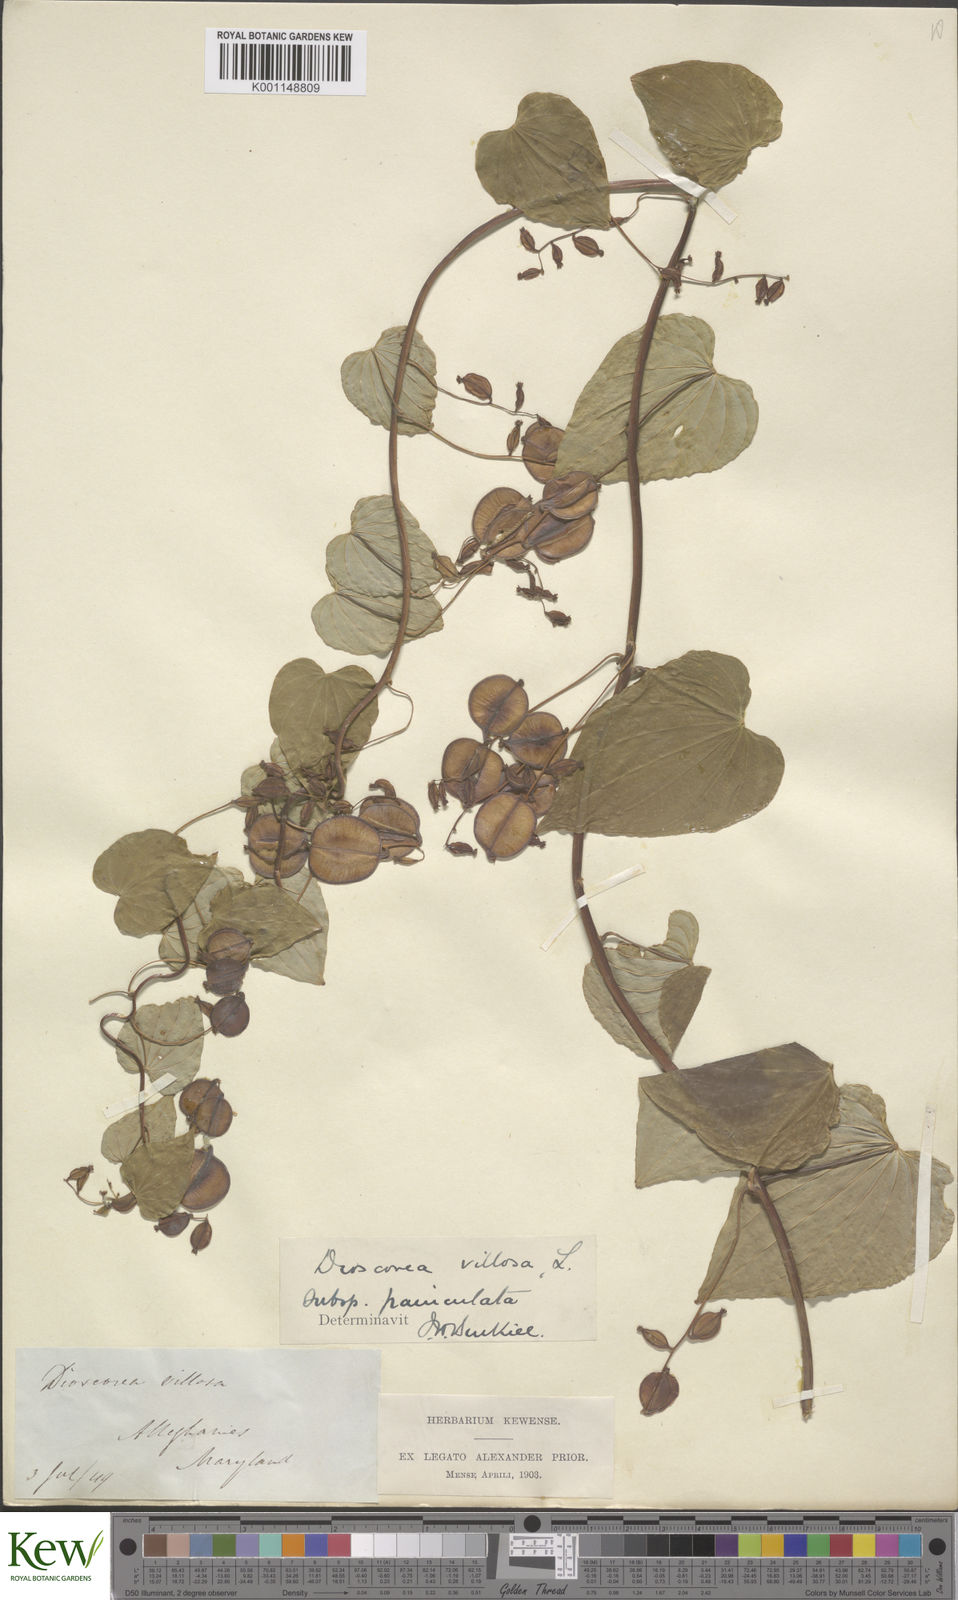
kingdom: Plantae
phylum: Tracheophyta
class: Liliopsida
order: Dioscoreales
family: Dioscoreaceae
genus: Dioscorea
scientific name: Dioscorea villosa
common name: Wild yam
